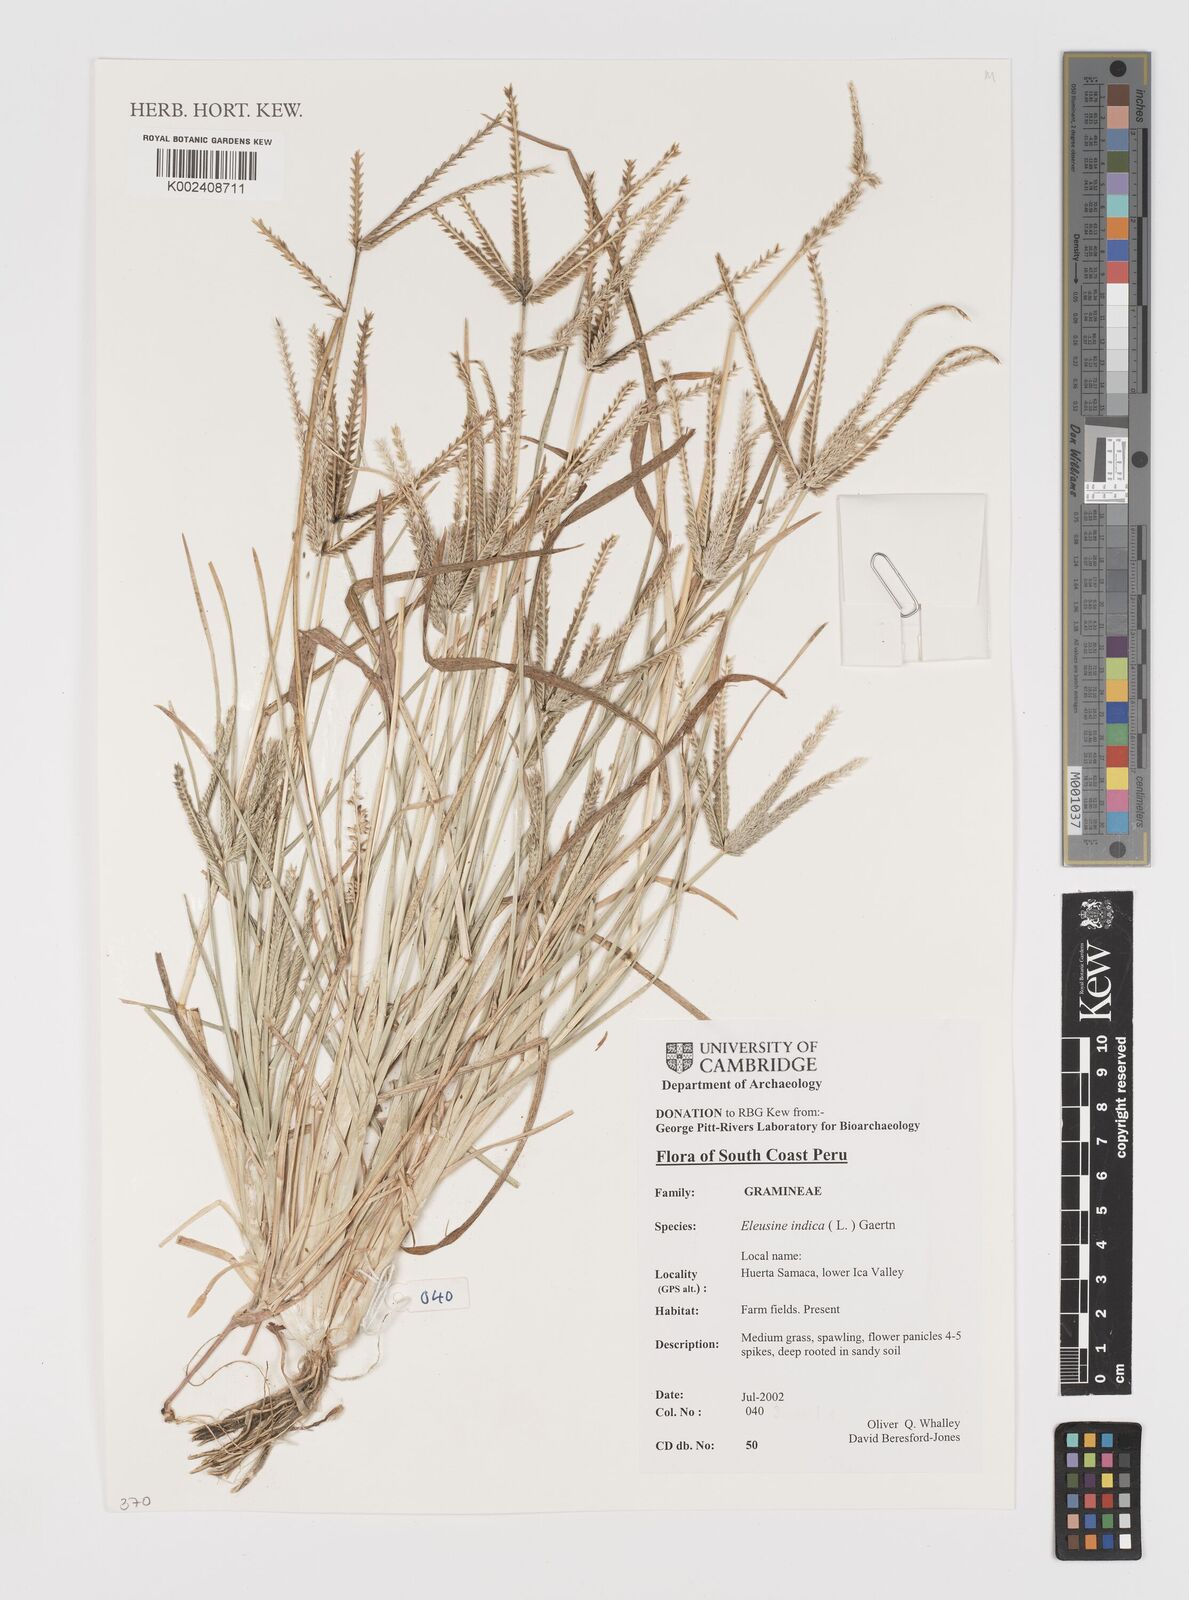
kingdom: Plantae
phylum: Tracheophyta
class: Liliopsida
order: Poales
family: Poaceae
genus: Eleusine
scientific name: Eleusine indica
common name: Yard-grass
